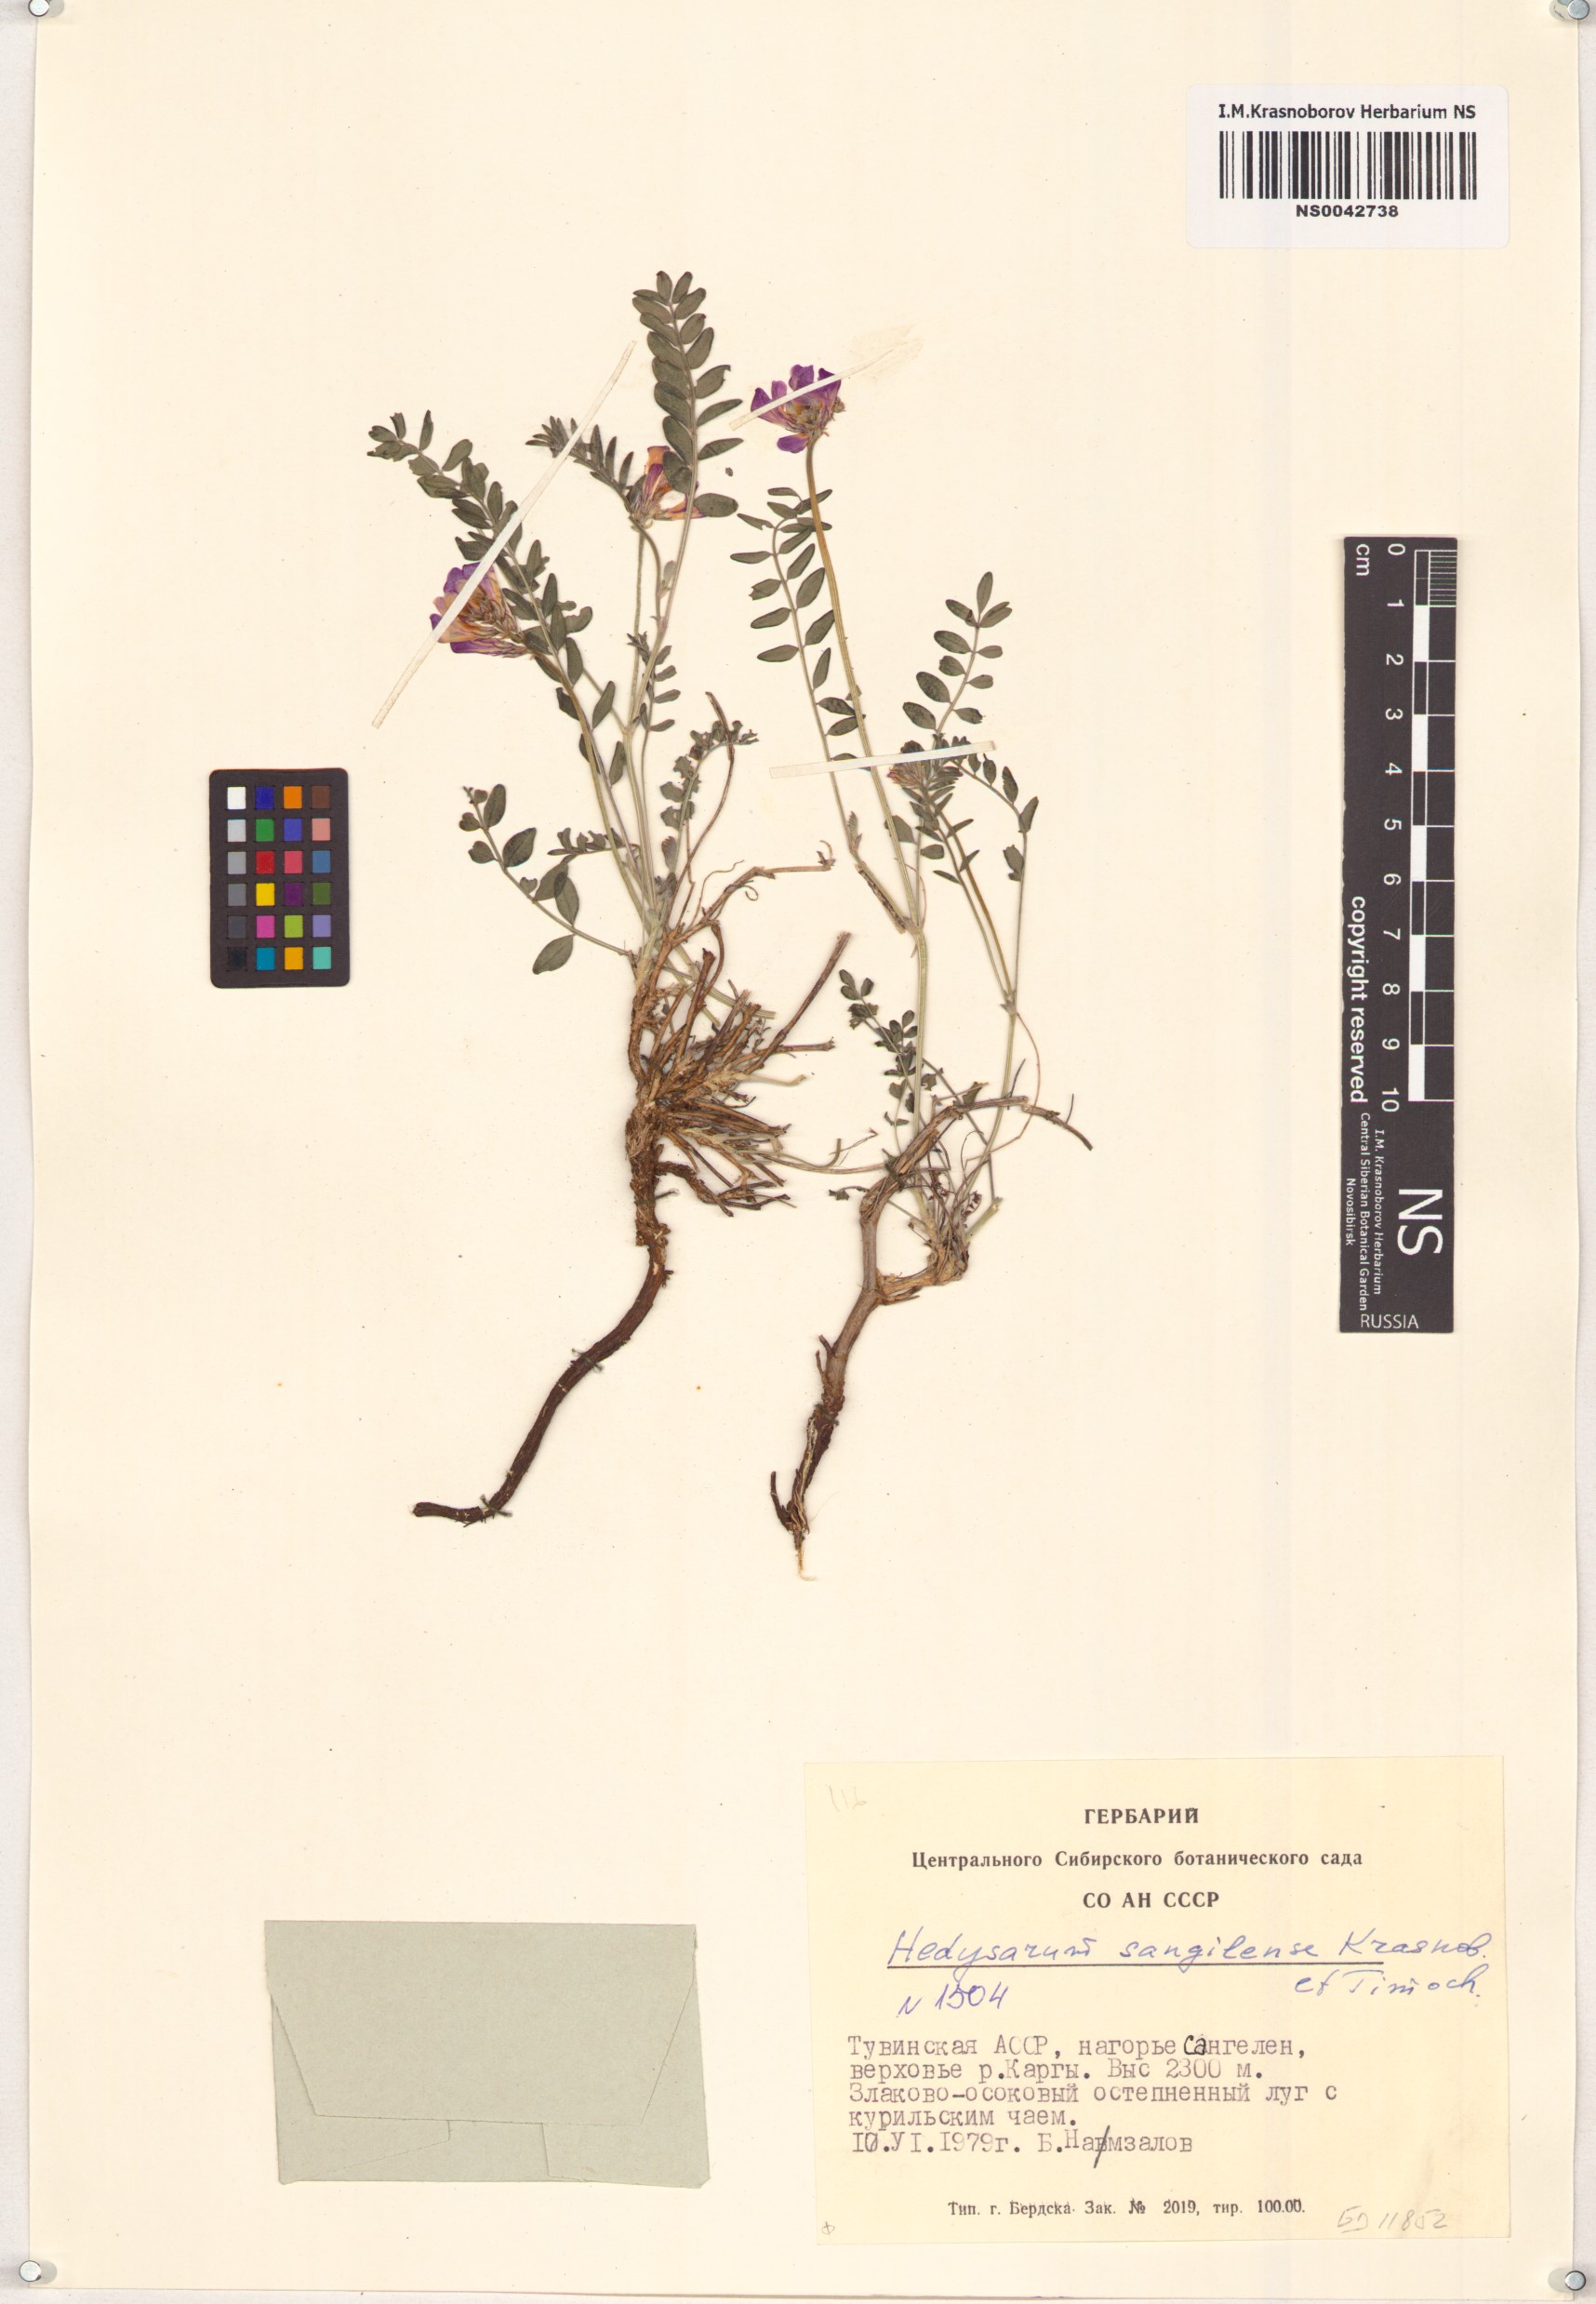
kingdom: Plantae
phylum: Tracheophyta
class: Magnoliopsida
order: Fabales
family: Fabaceae
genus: Hedysarum
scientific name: Hedysarum sangilense
